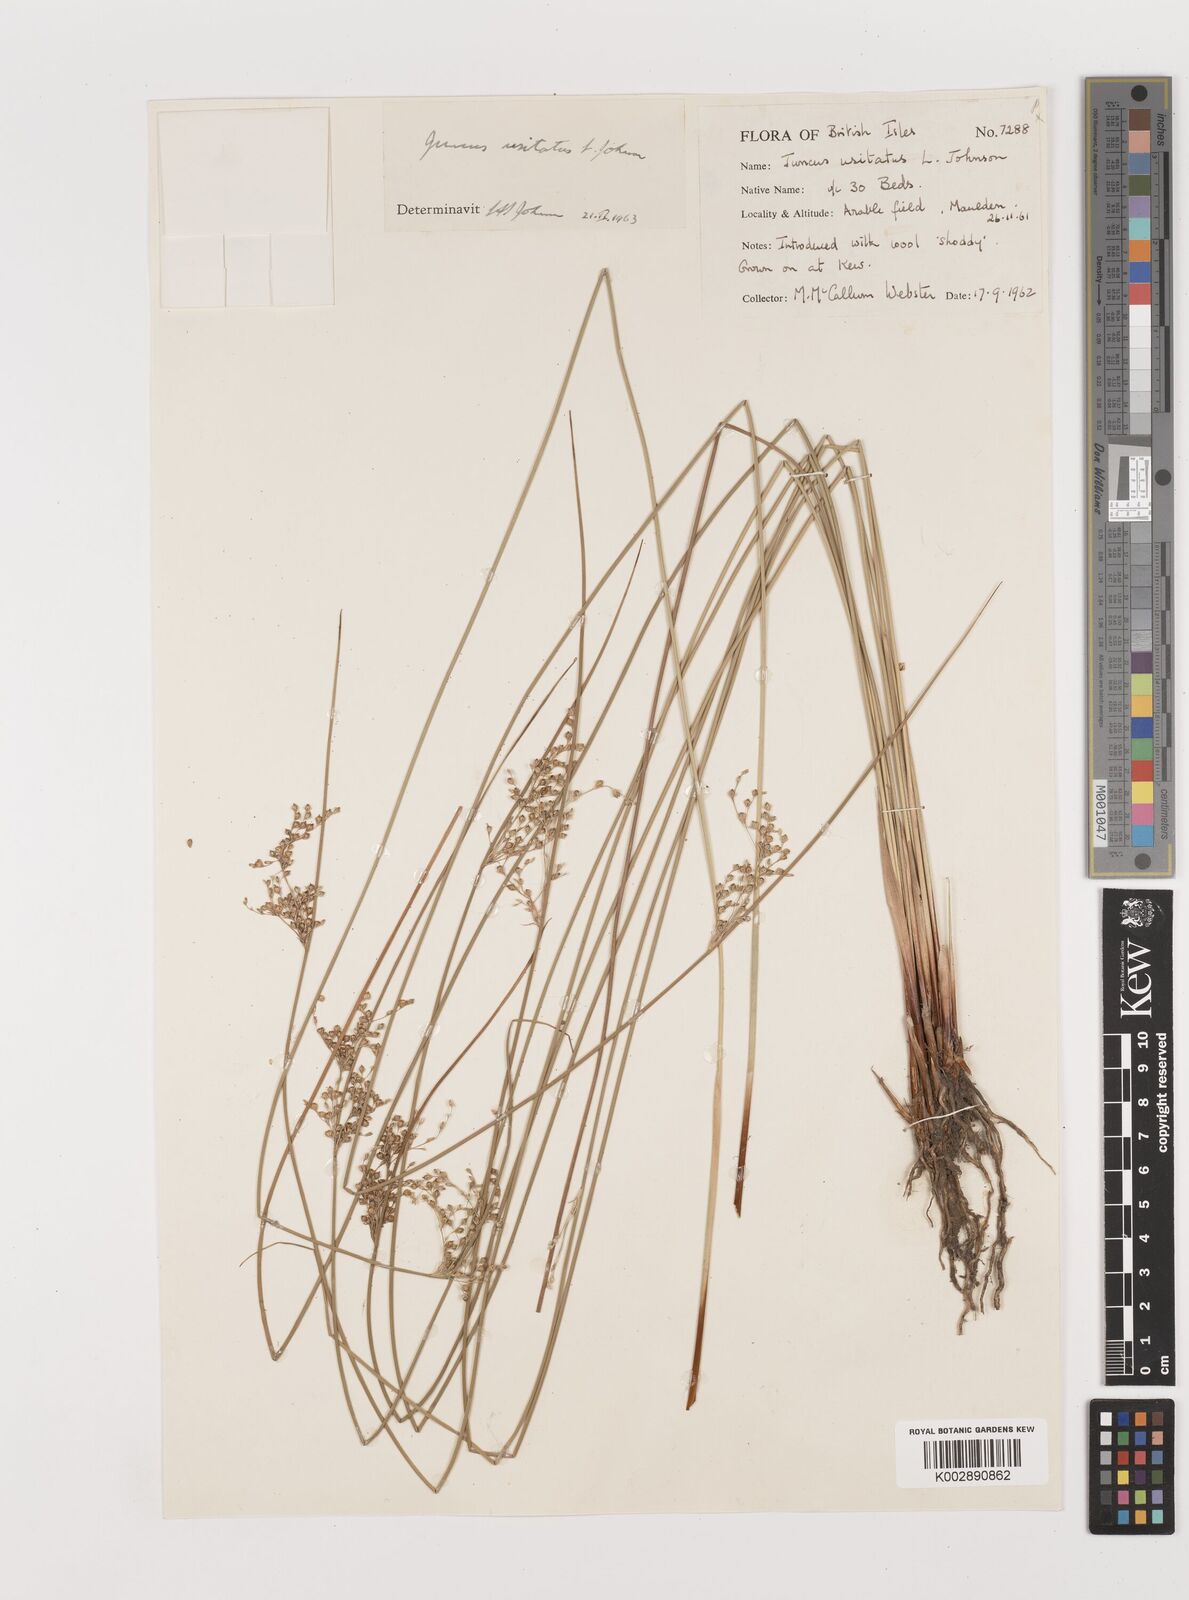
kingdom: Plantae
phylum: Tracheophyta
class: Liliopsida
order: Poales
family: Juncaceae
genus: Juncus
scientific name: Juncus usitatus
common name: Rush
